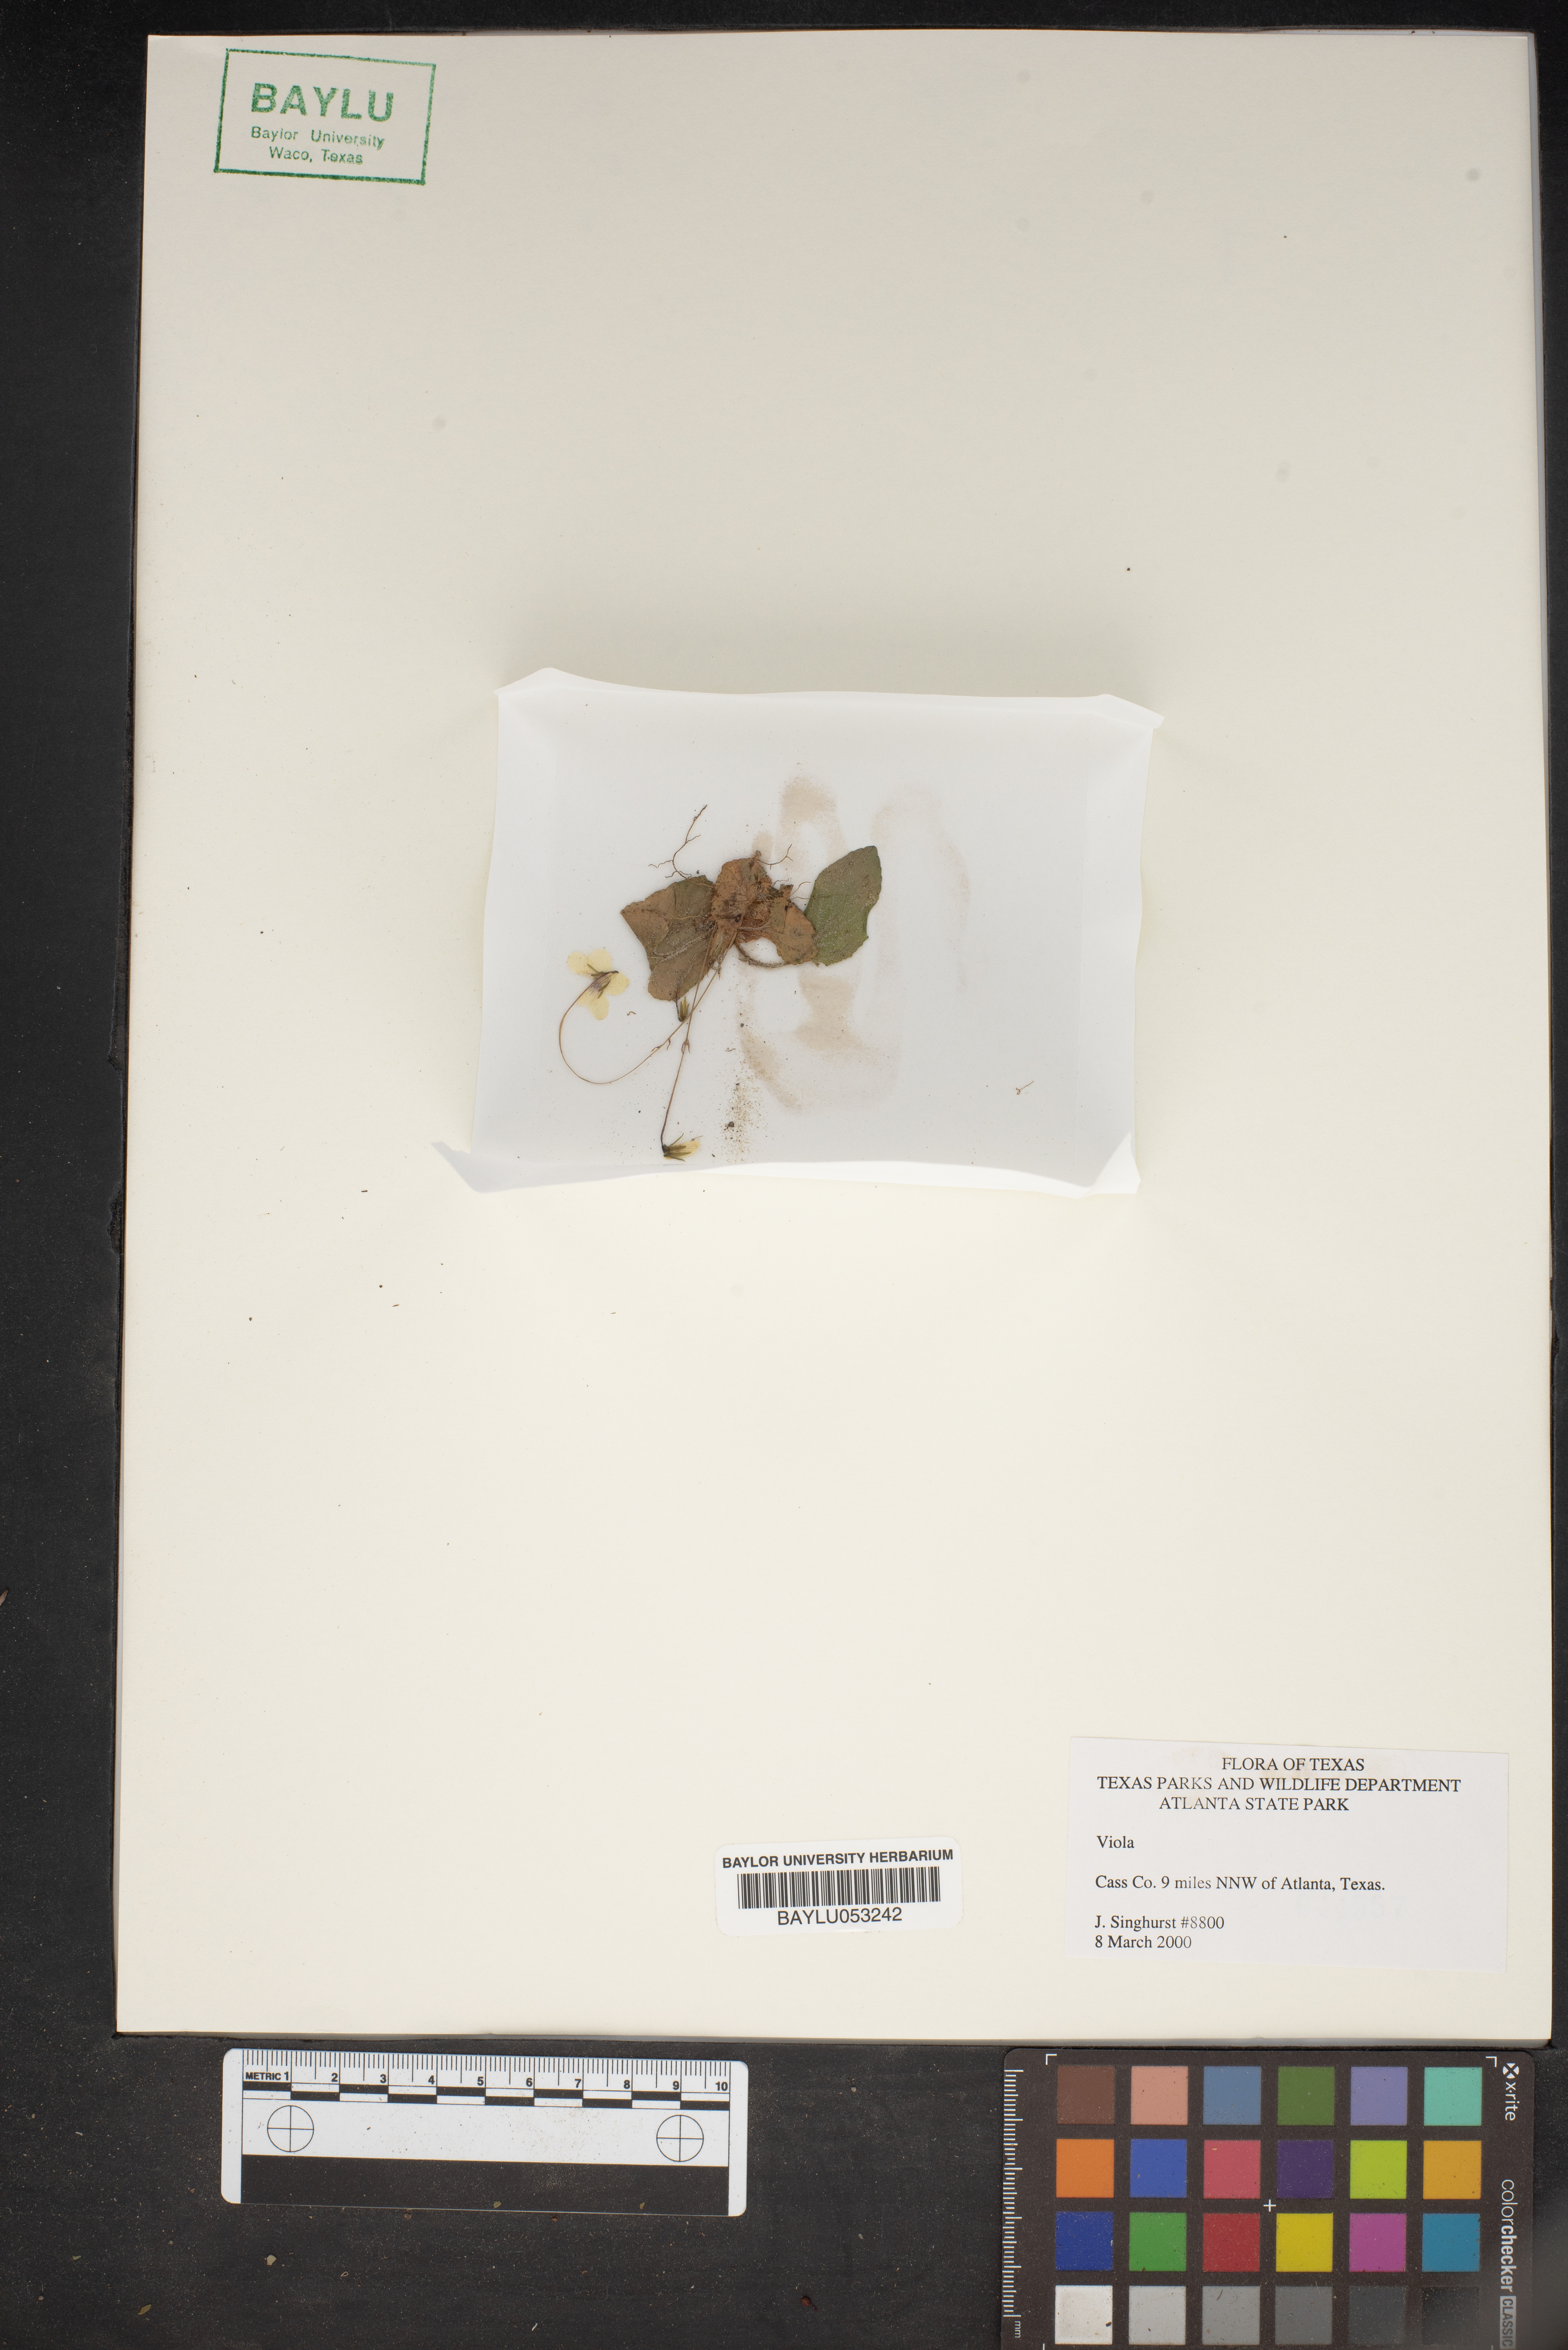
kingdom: Plantae
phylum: Tracheophyta
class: Magnoliopsida
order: Malpighiales
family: Violaceae
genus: Viola
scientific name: Viola
